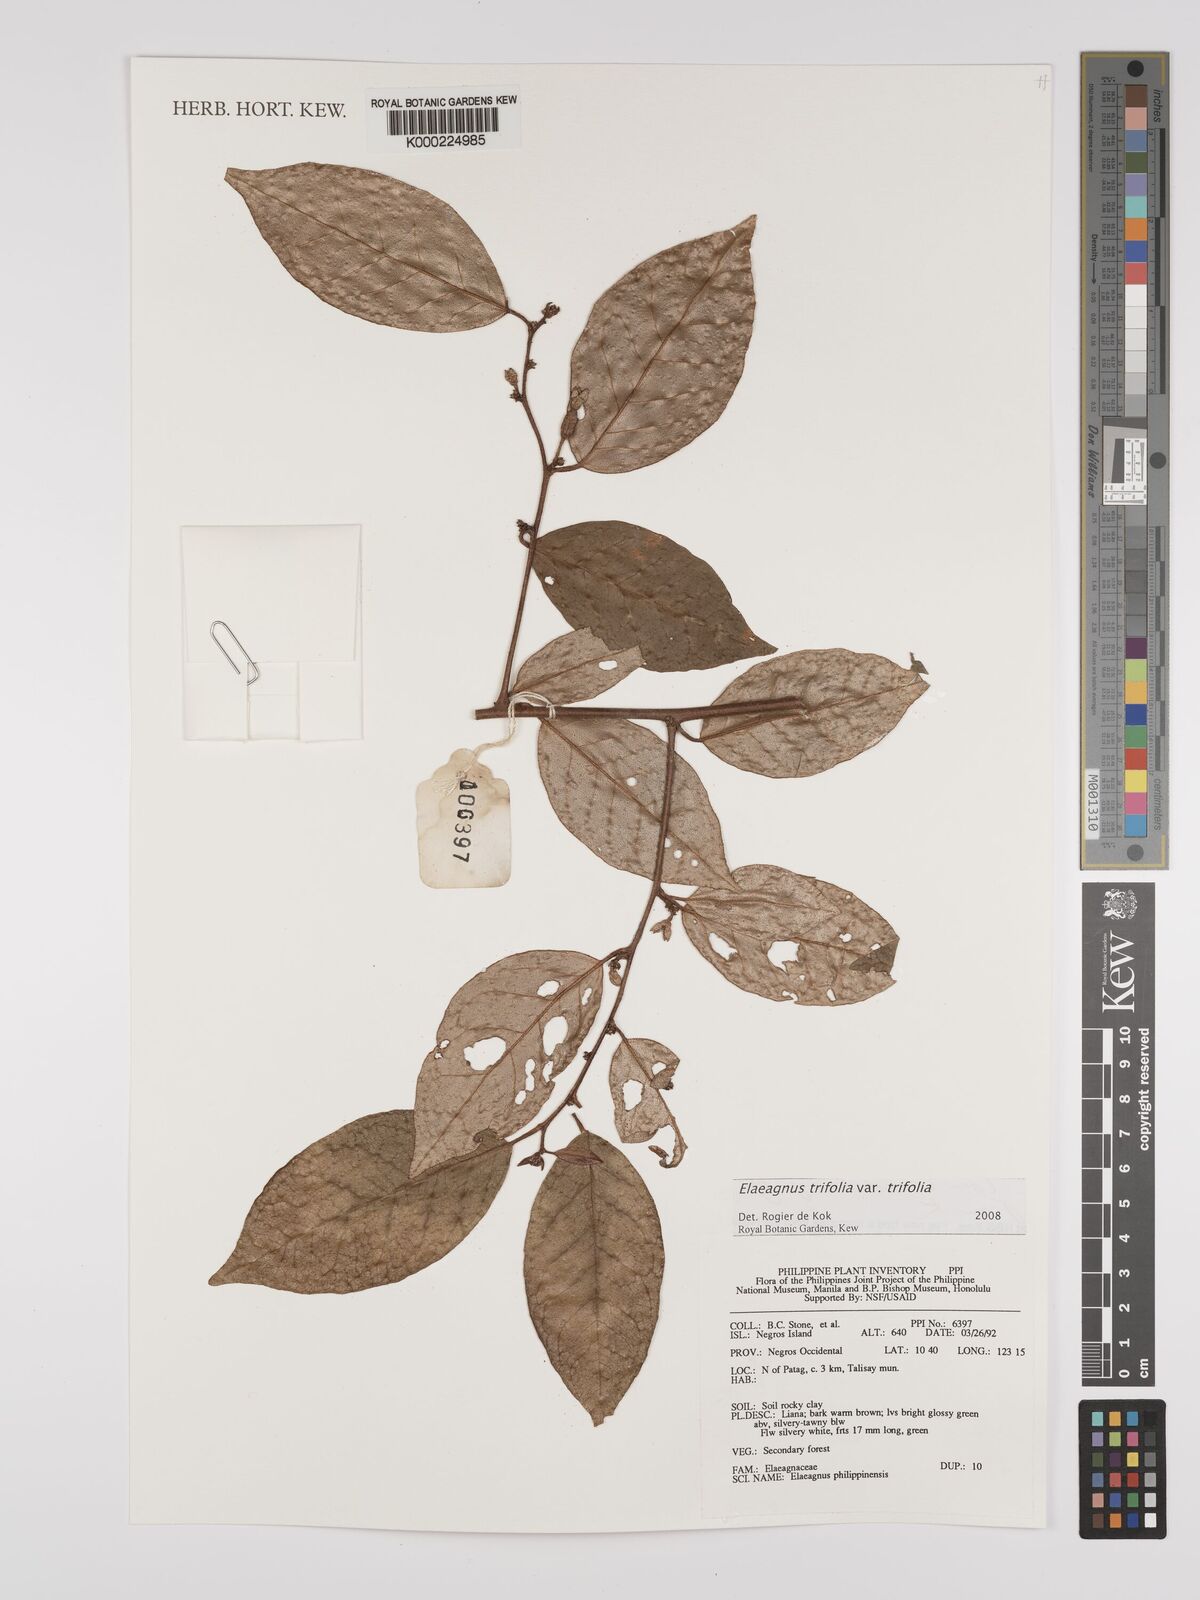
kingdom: Plantae
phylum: Tracheophyta
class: Magnoliopsida
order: Rosales
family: Elaeagnaceae
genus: Elaeagnus
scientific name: Elaeagnus
